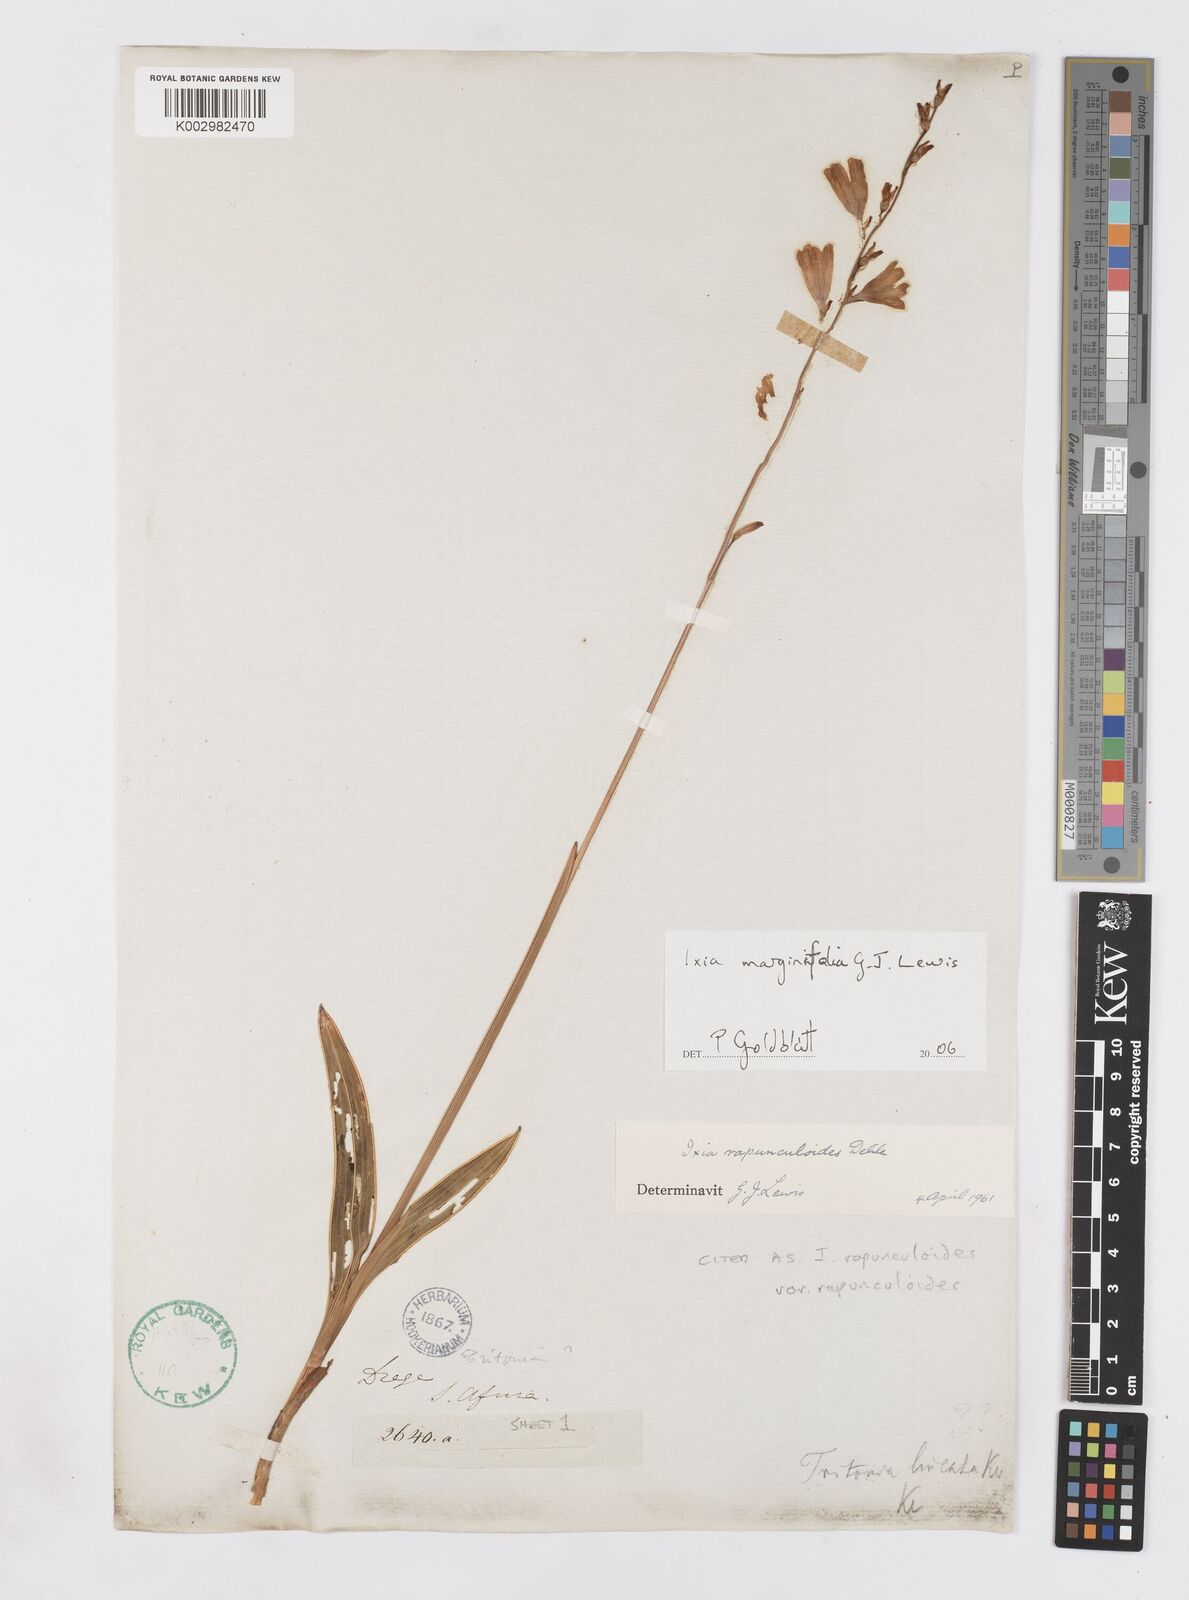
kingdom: Plantae
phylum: Tracheophyta
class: Liliopsida
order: Asparagales
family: Iridaceae
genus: Ixia
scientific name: Ixia marginifolia
